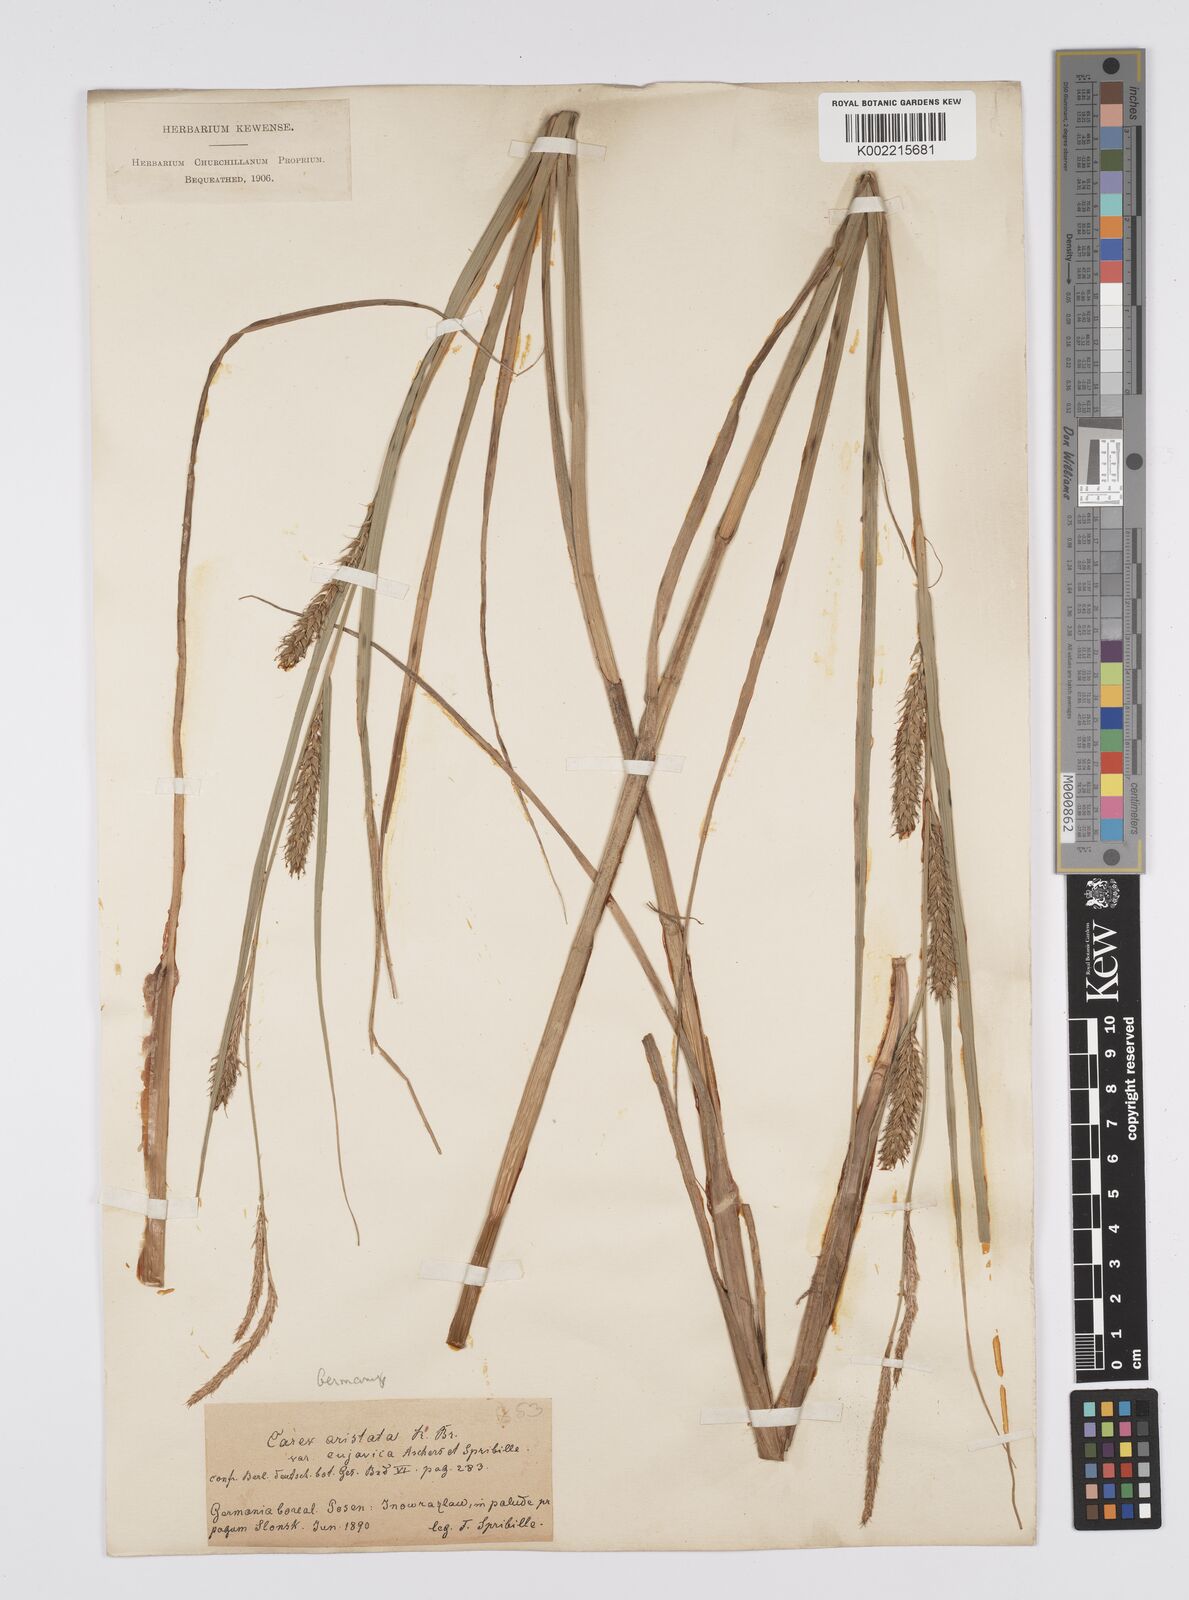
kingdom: Plantae
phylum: Tracheophyta
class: Liliopsida
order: Poales
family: Cyperaceae
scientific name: Cyperaceae
